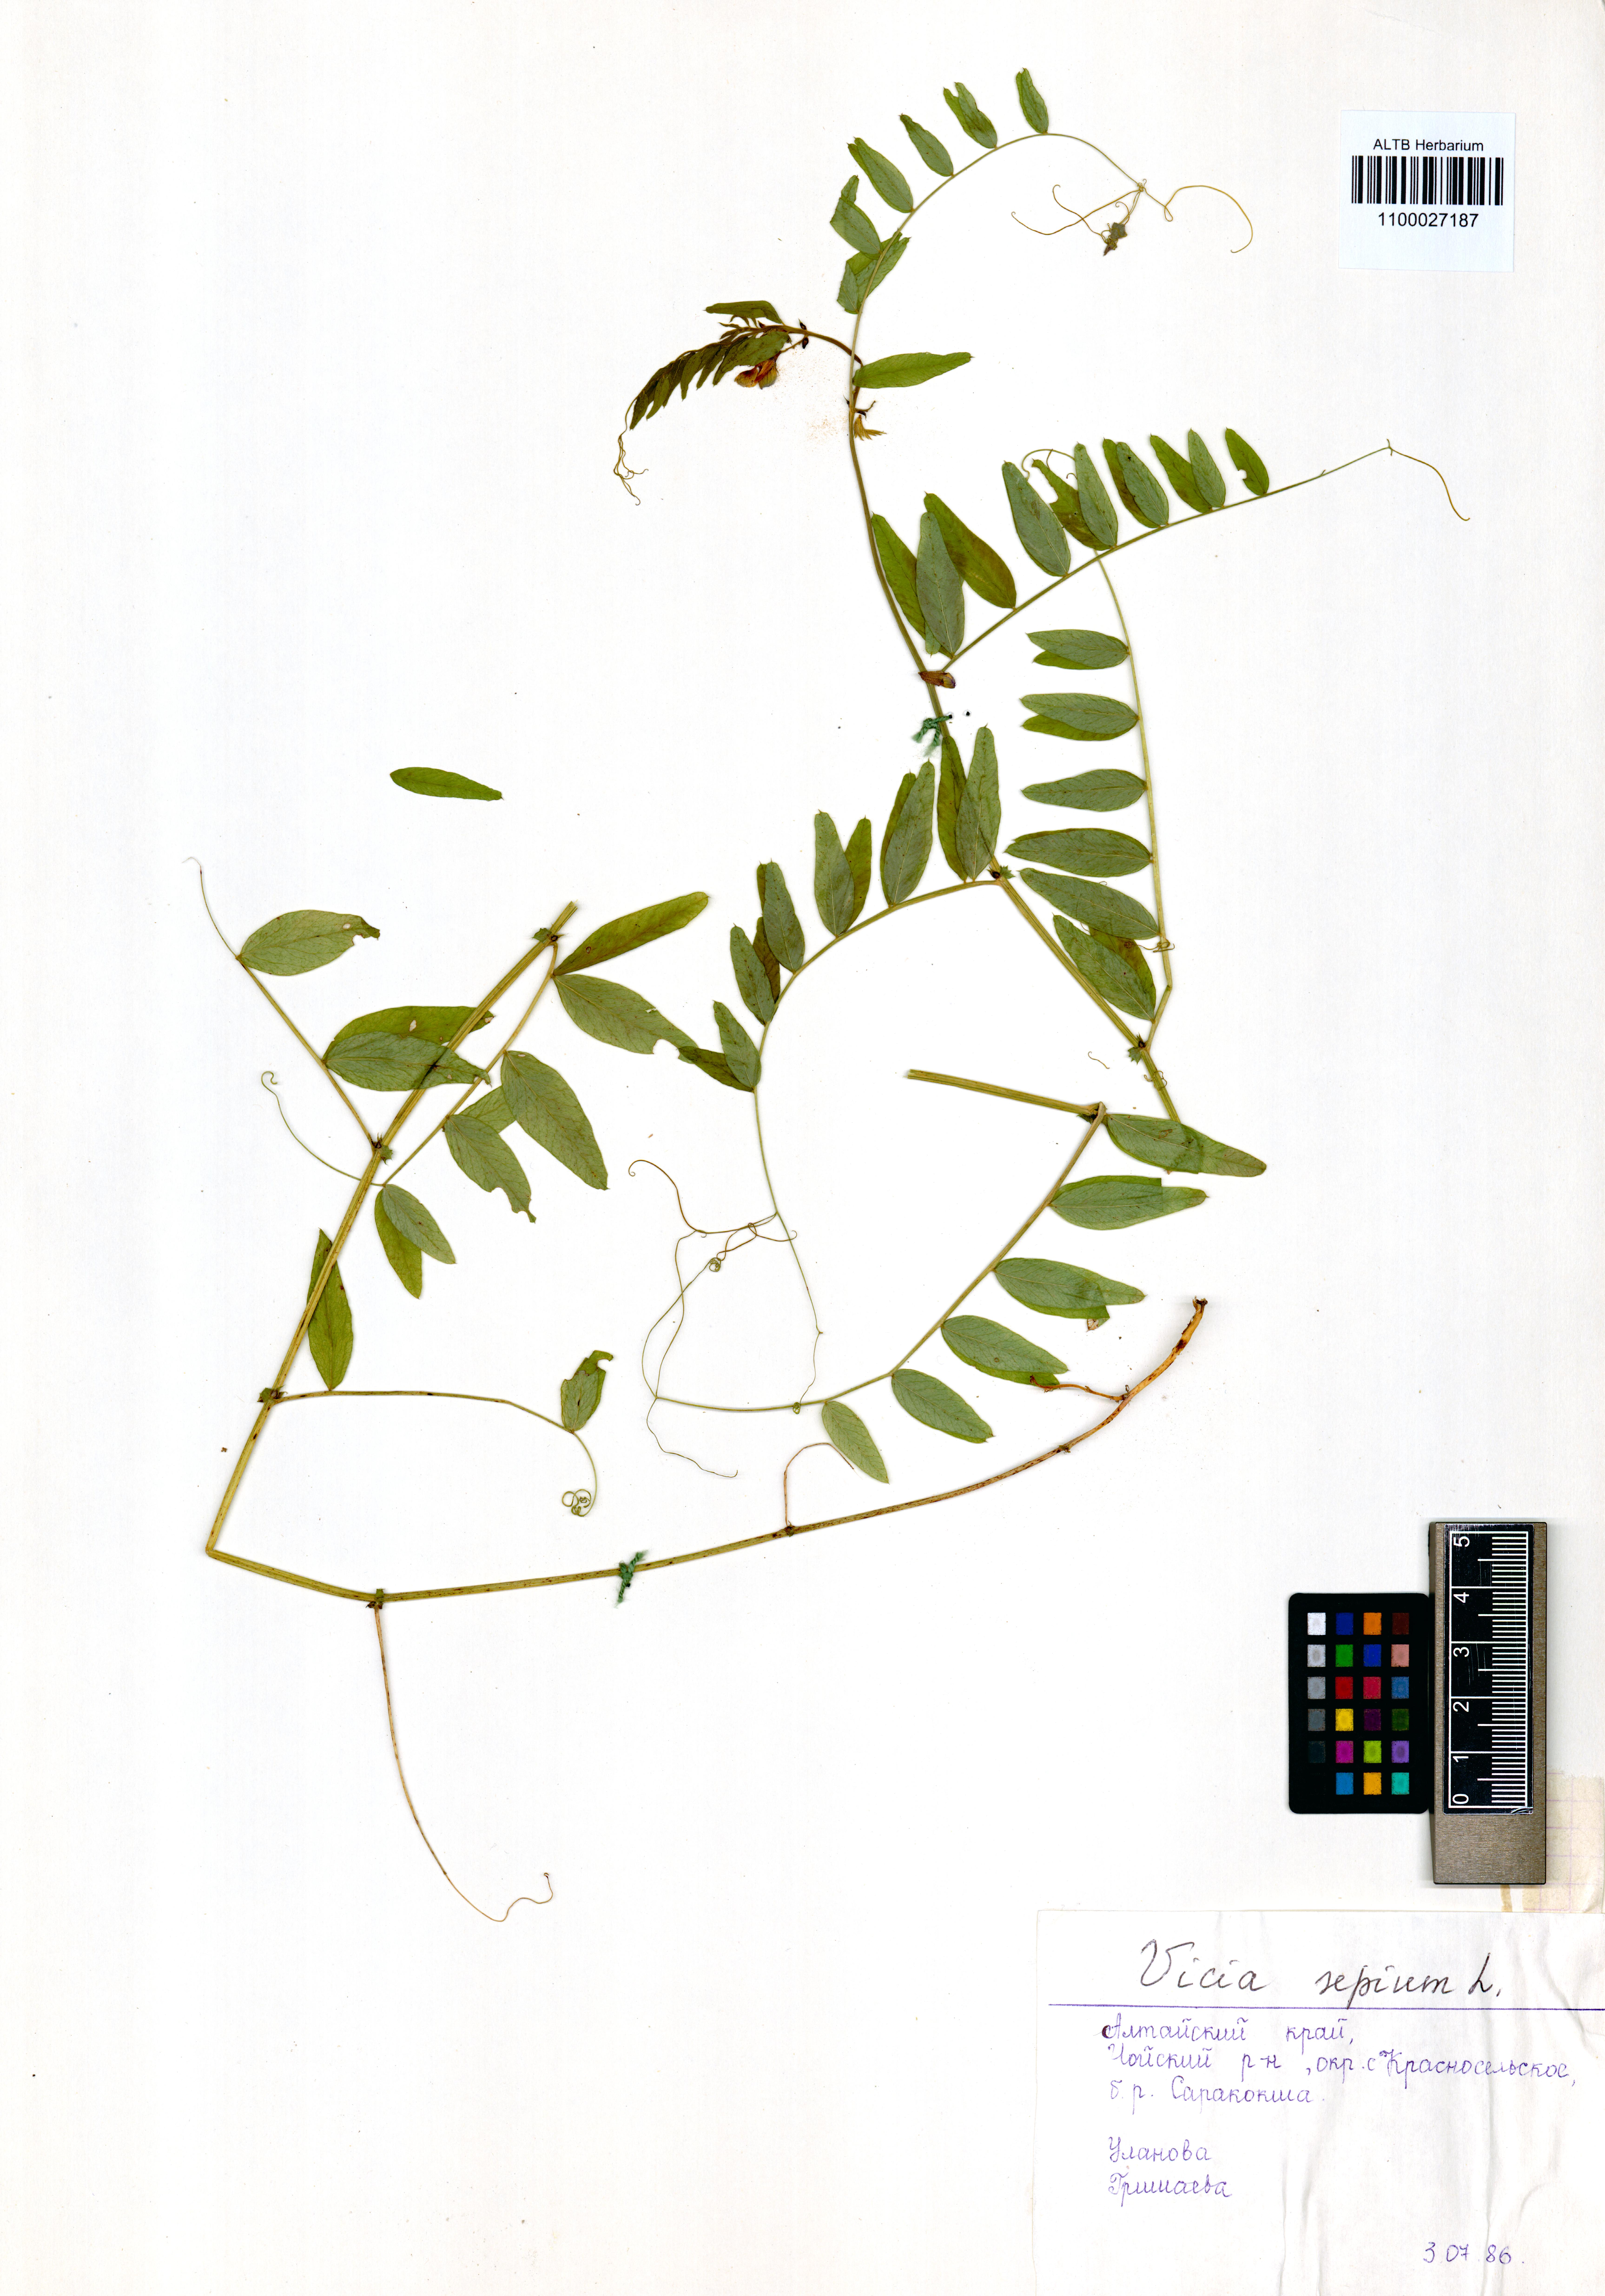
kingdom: Plantae
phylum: Tracheophyta
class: Magnoliopsida
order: Fabales
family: Fabaceae
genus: Vicia
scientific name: Vicia sepium
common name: Bush vetch
